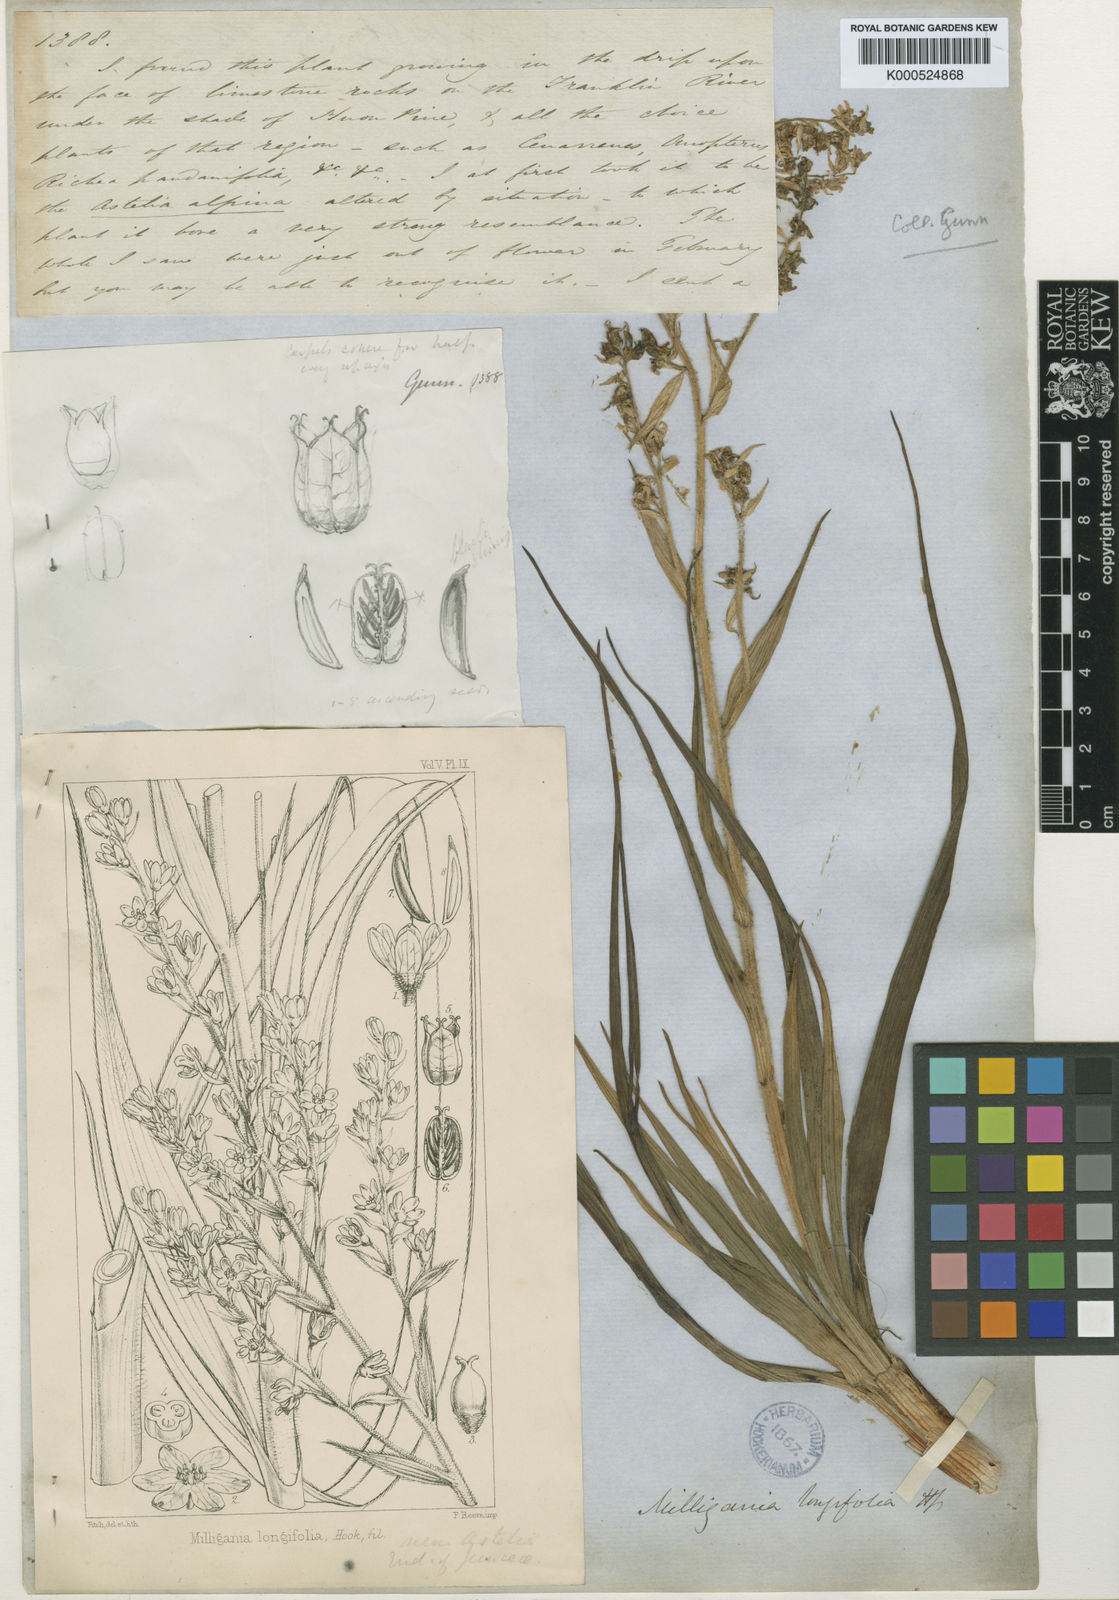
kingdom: Plantae
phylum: Tracheophyta
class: Liliopsida
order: Asparagales
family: Asteliaceae
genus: Milligania
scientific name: Milligania longifolia
